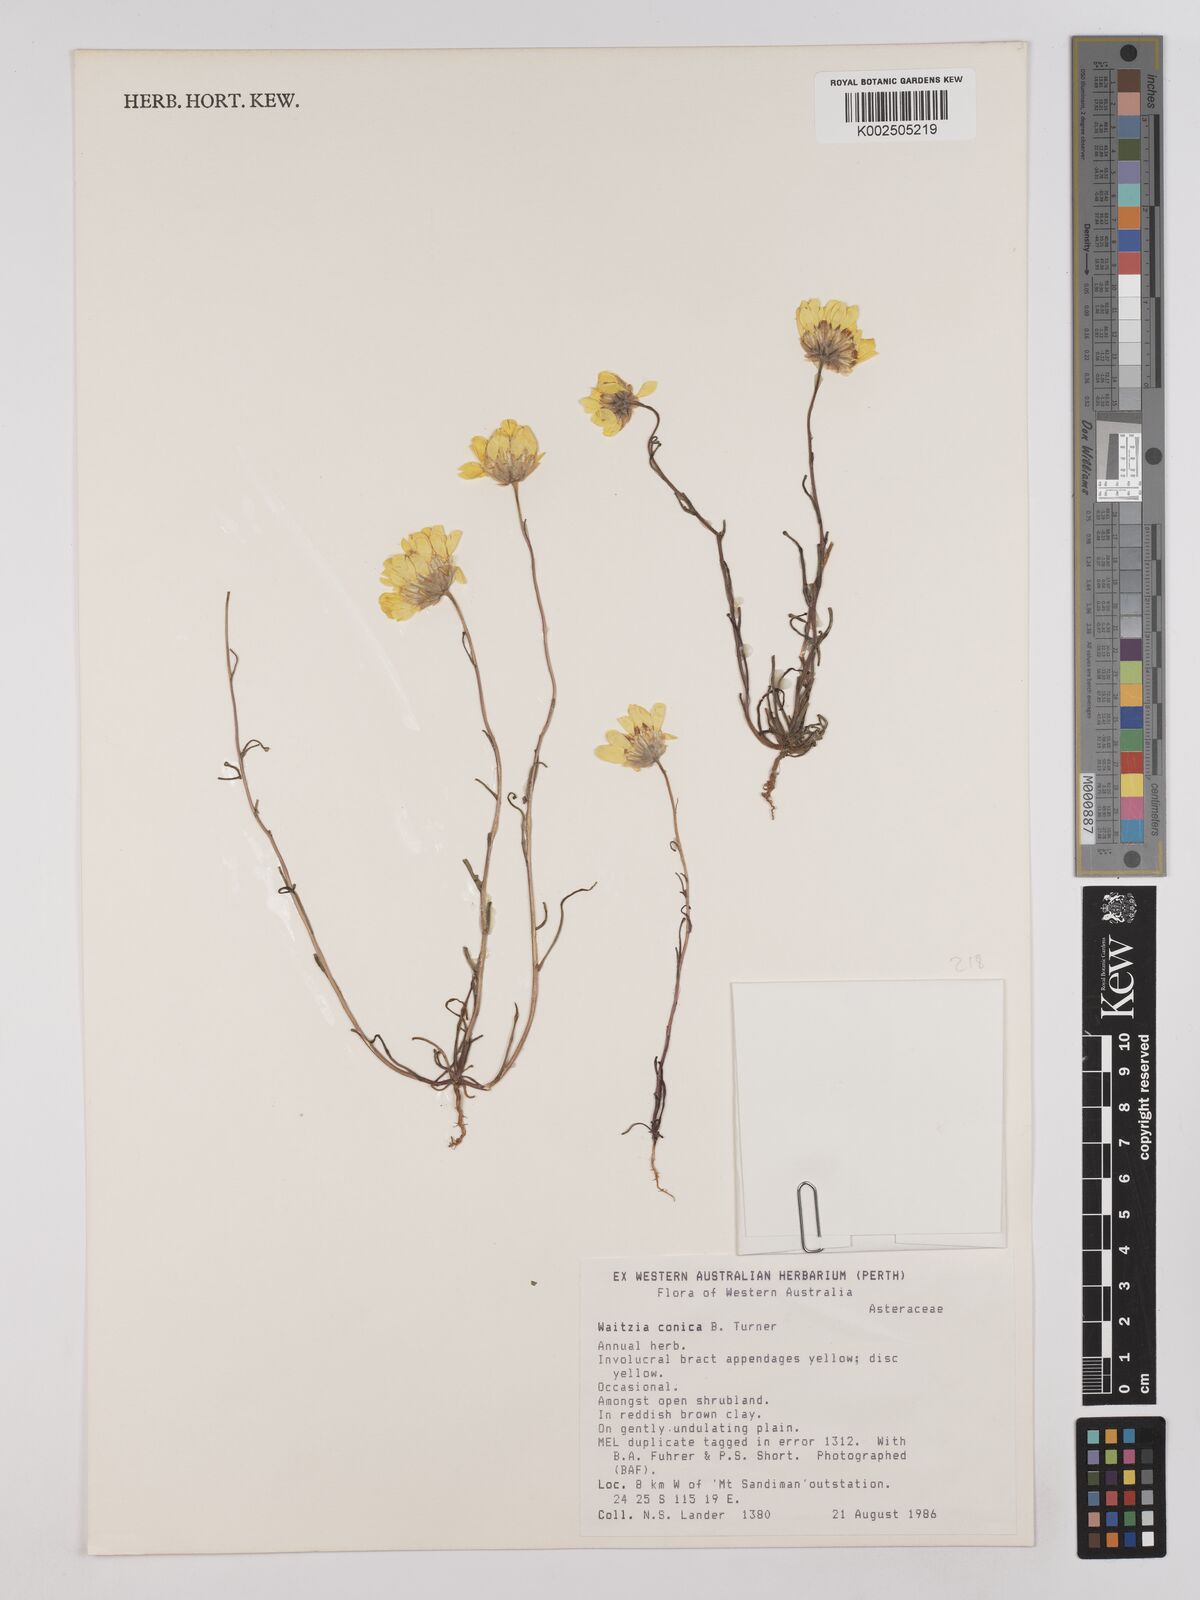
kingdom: Plantae
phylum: Tracheophyta
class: Magnoliopsida
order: Asterales
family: Asteraceae
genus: Haptotrichion
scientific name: Haptotrichion conicum
